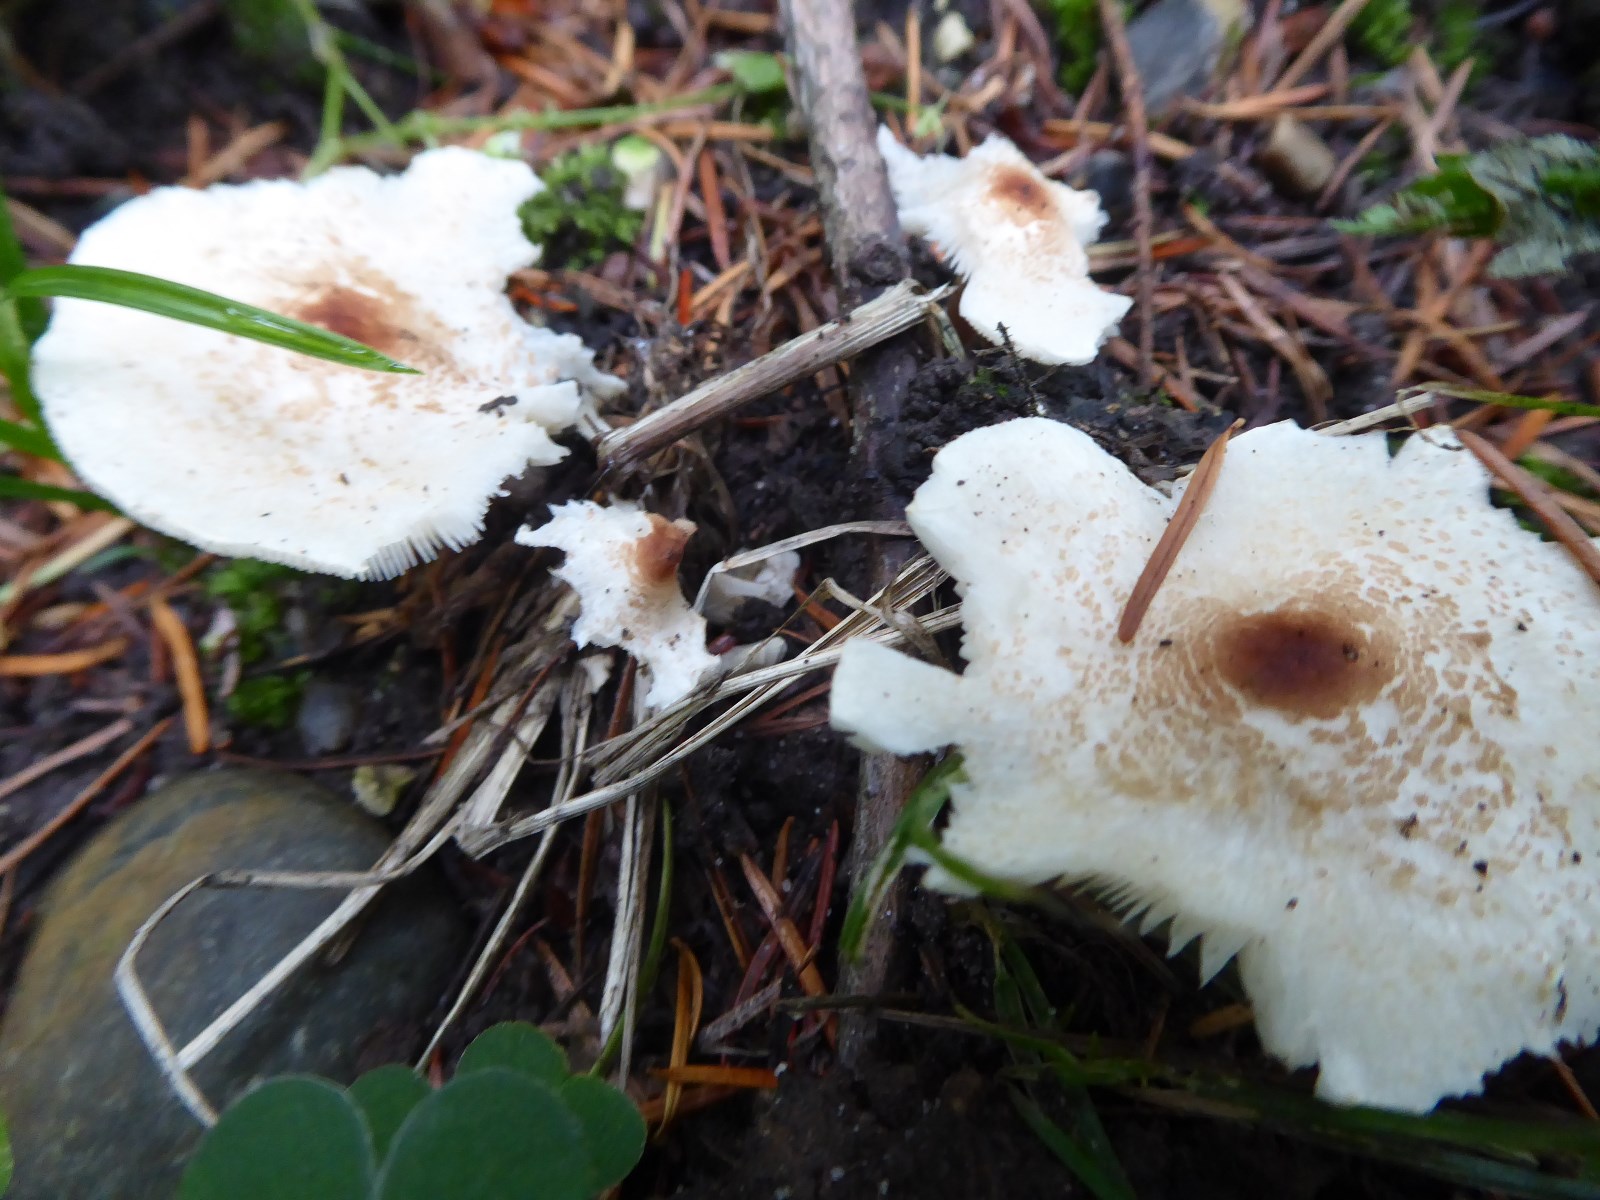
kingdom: Fungi
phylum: Basidiomycota
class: Agaricomycetes
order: Agaricales
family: Agaricaceae
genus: Lepiota
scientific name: Lepiota cristata
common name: stinkende parasolhat
